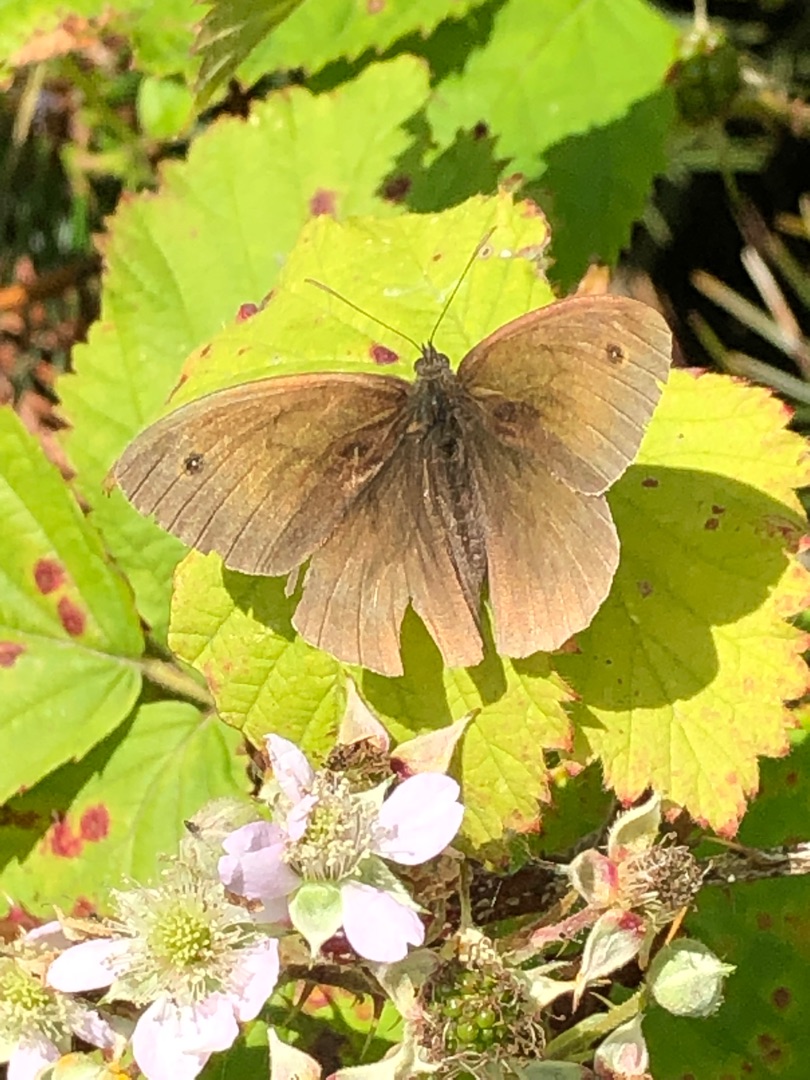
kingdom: Animalia
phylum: Arthropoda
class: Insecta
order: Lepidoptera
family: Nymphalidae
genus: Maniola
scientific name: Maniola jurtina
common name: Græsrandøje
